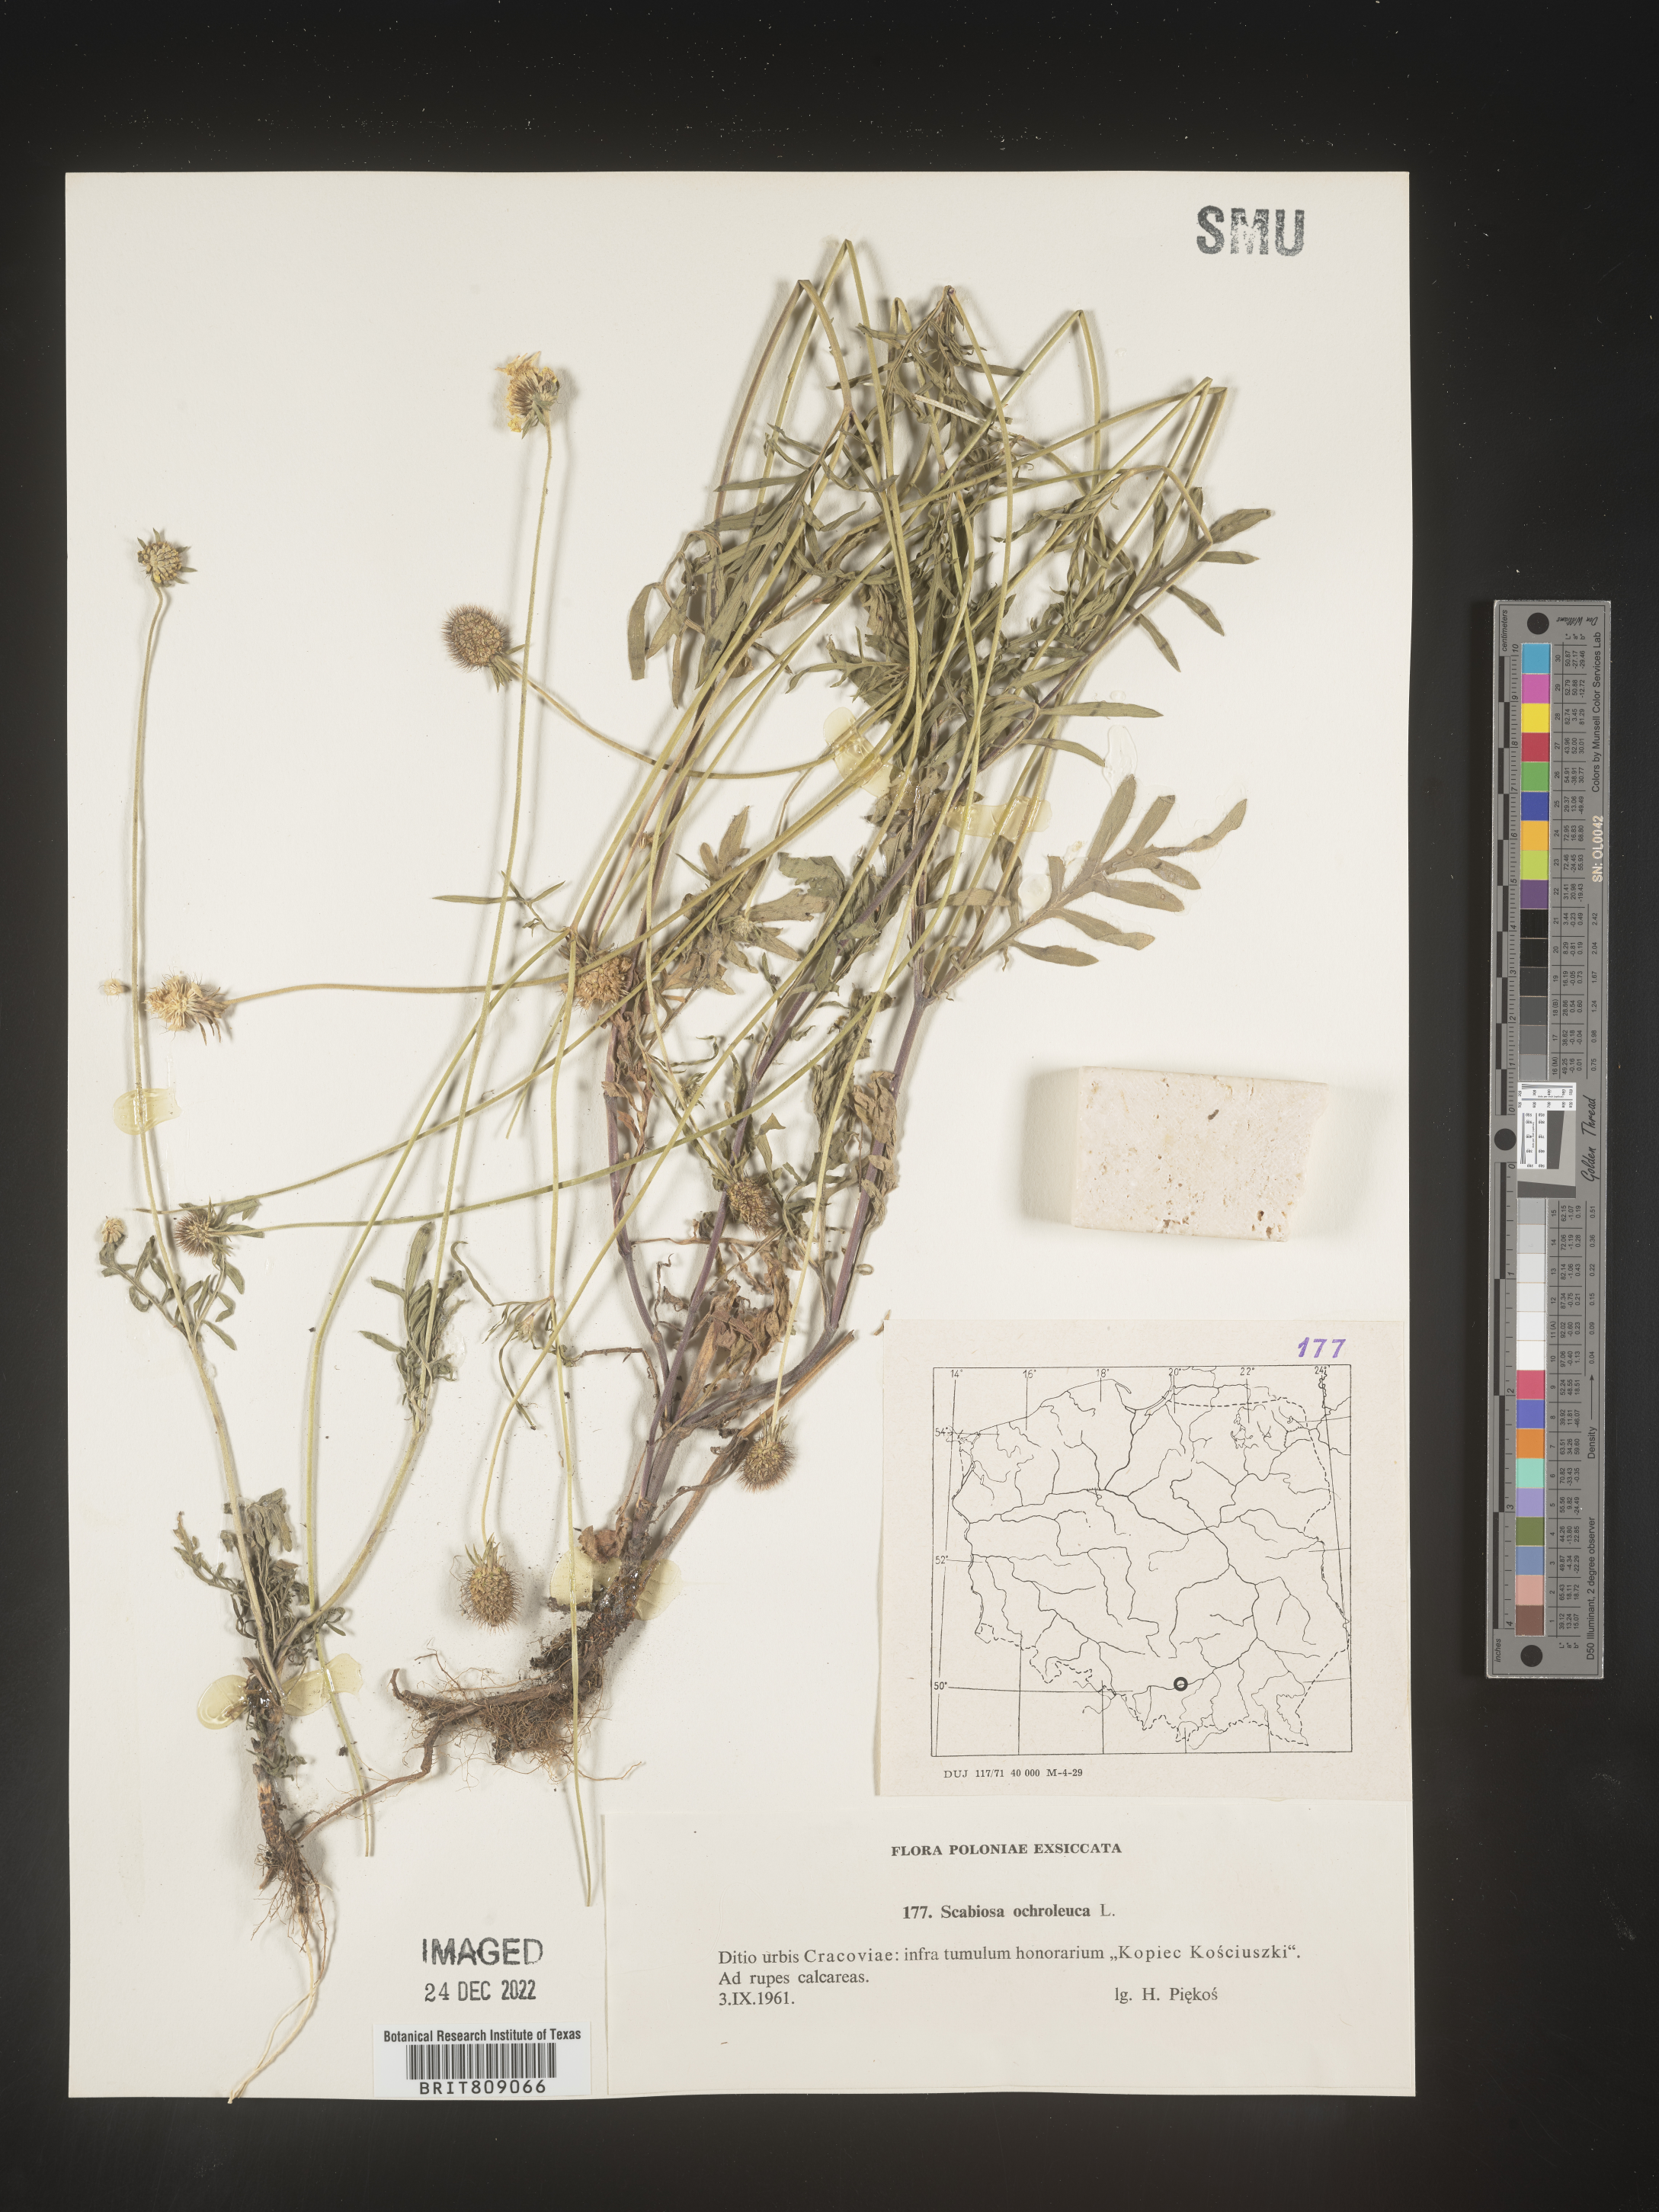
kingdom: Plantae
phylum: Tracheophyta
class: Magnoliopsida
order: Dipsacales
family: Caprifoliaceae
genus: Scabiosa
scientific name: Scabiosa
